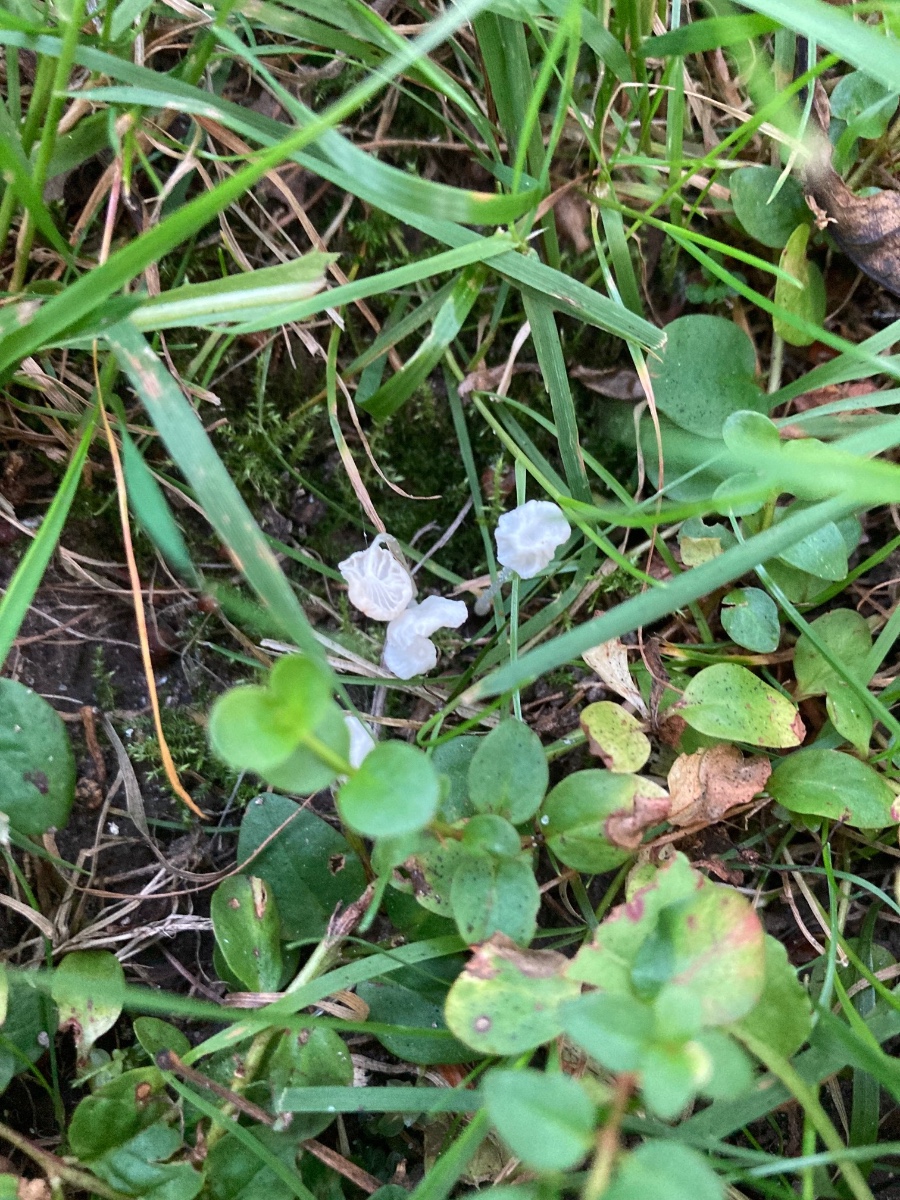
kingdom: Fungi
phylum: Basidiomycota
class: Agaricomycetes
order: Agaricales
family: Tricholomataceae
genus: Delicatula
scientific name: Delicatula integrella
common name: slørhuesvamp
